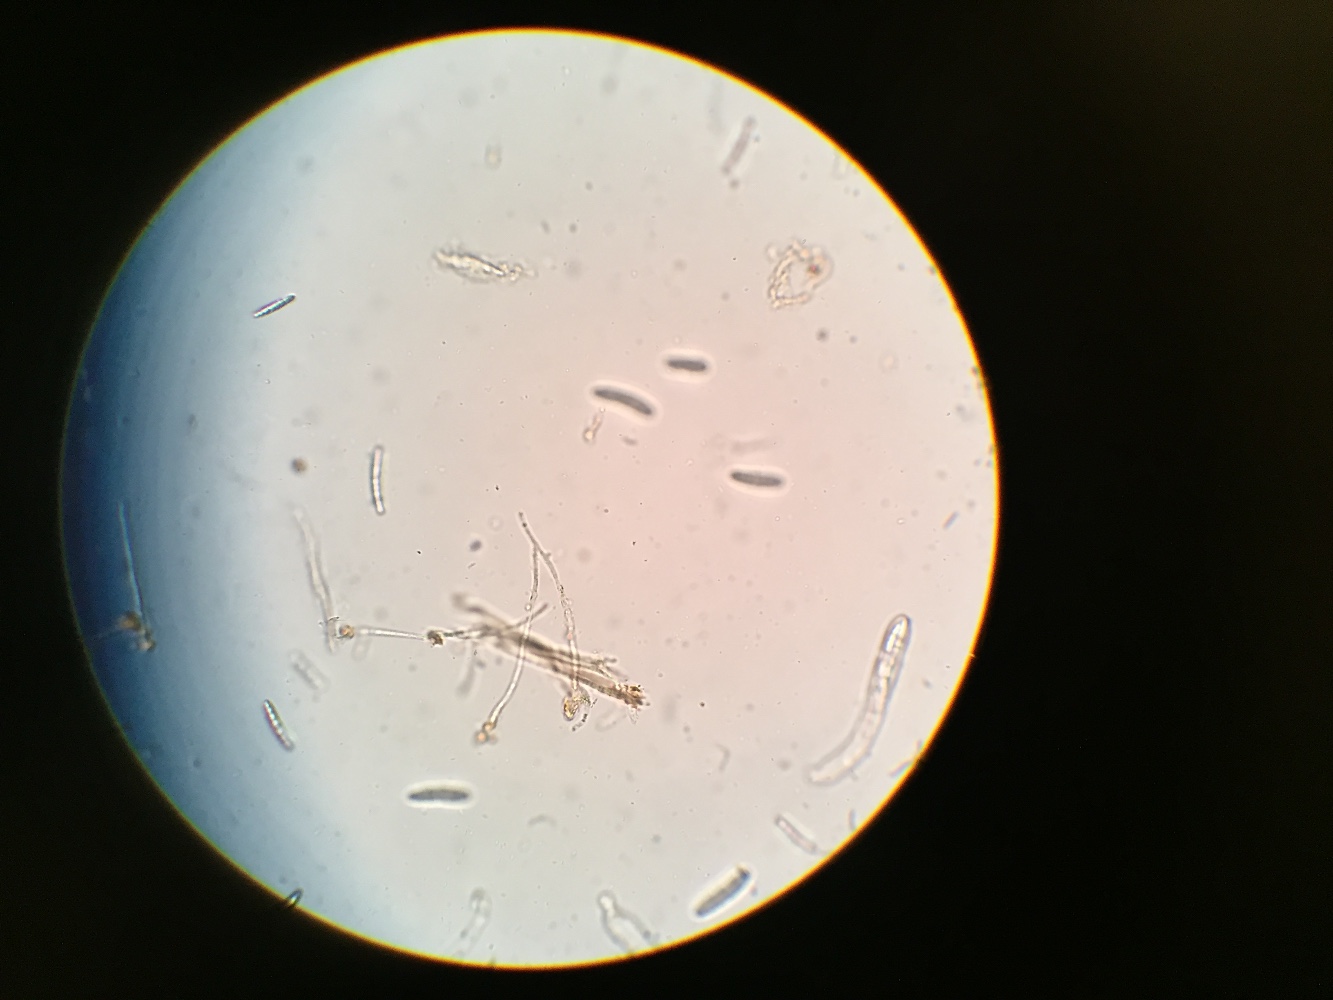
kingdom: Fungi
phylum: Ascomycota
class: Geoglossomycetes
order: Geoglossales
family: Geoglossaceae
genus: Geoglossum
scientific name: Geoglossum atropurpureum
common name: purpursort farvetunge
